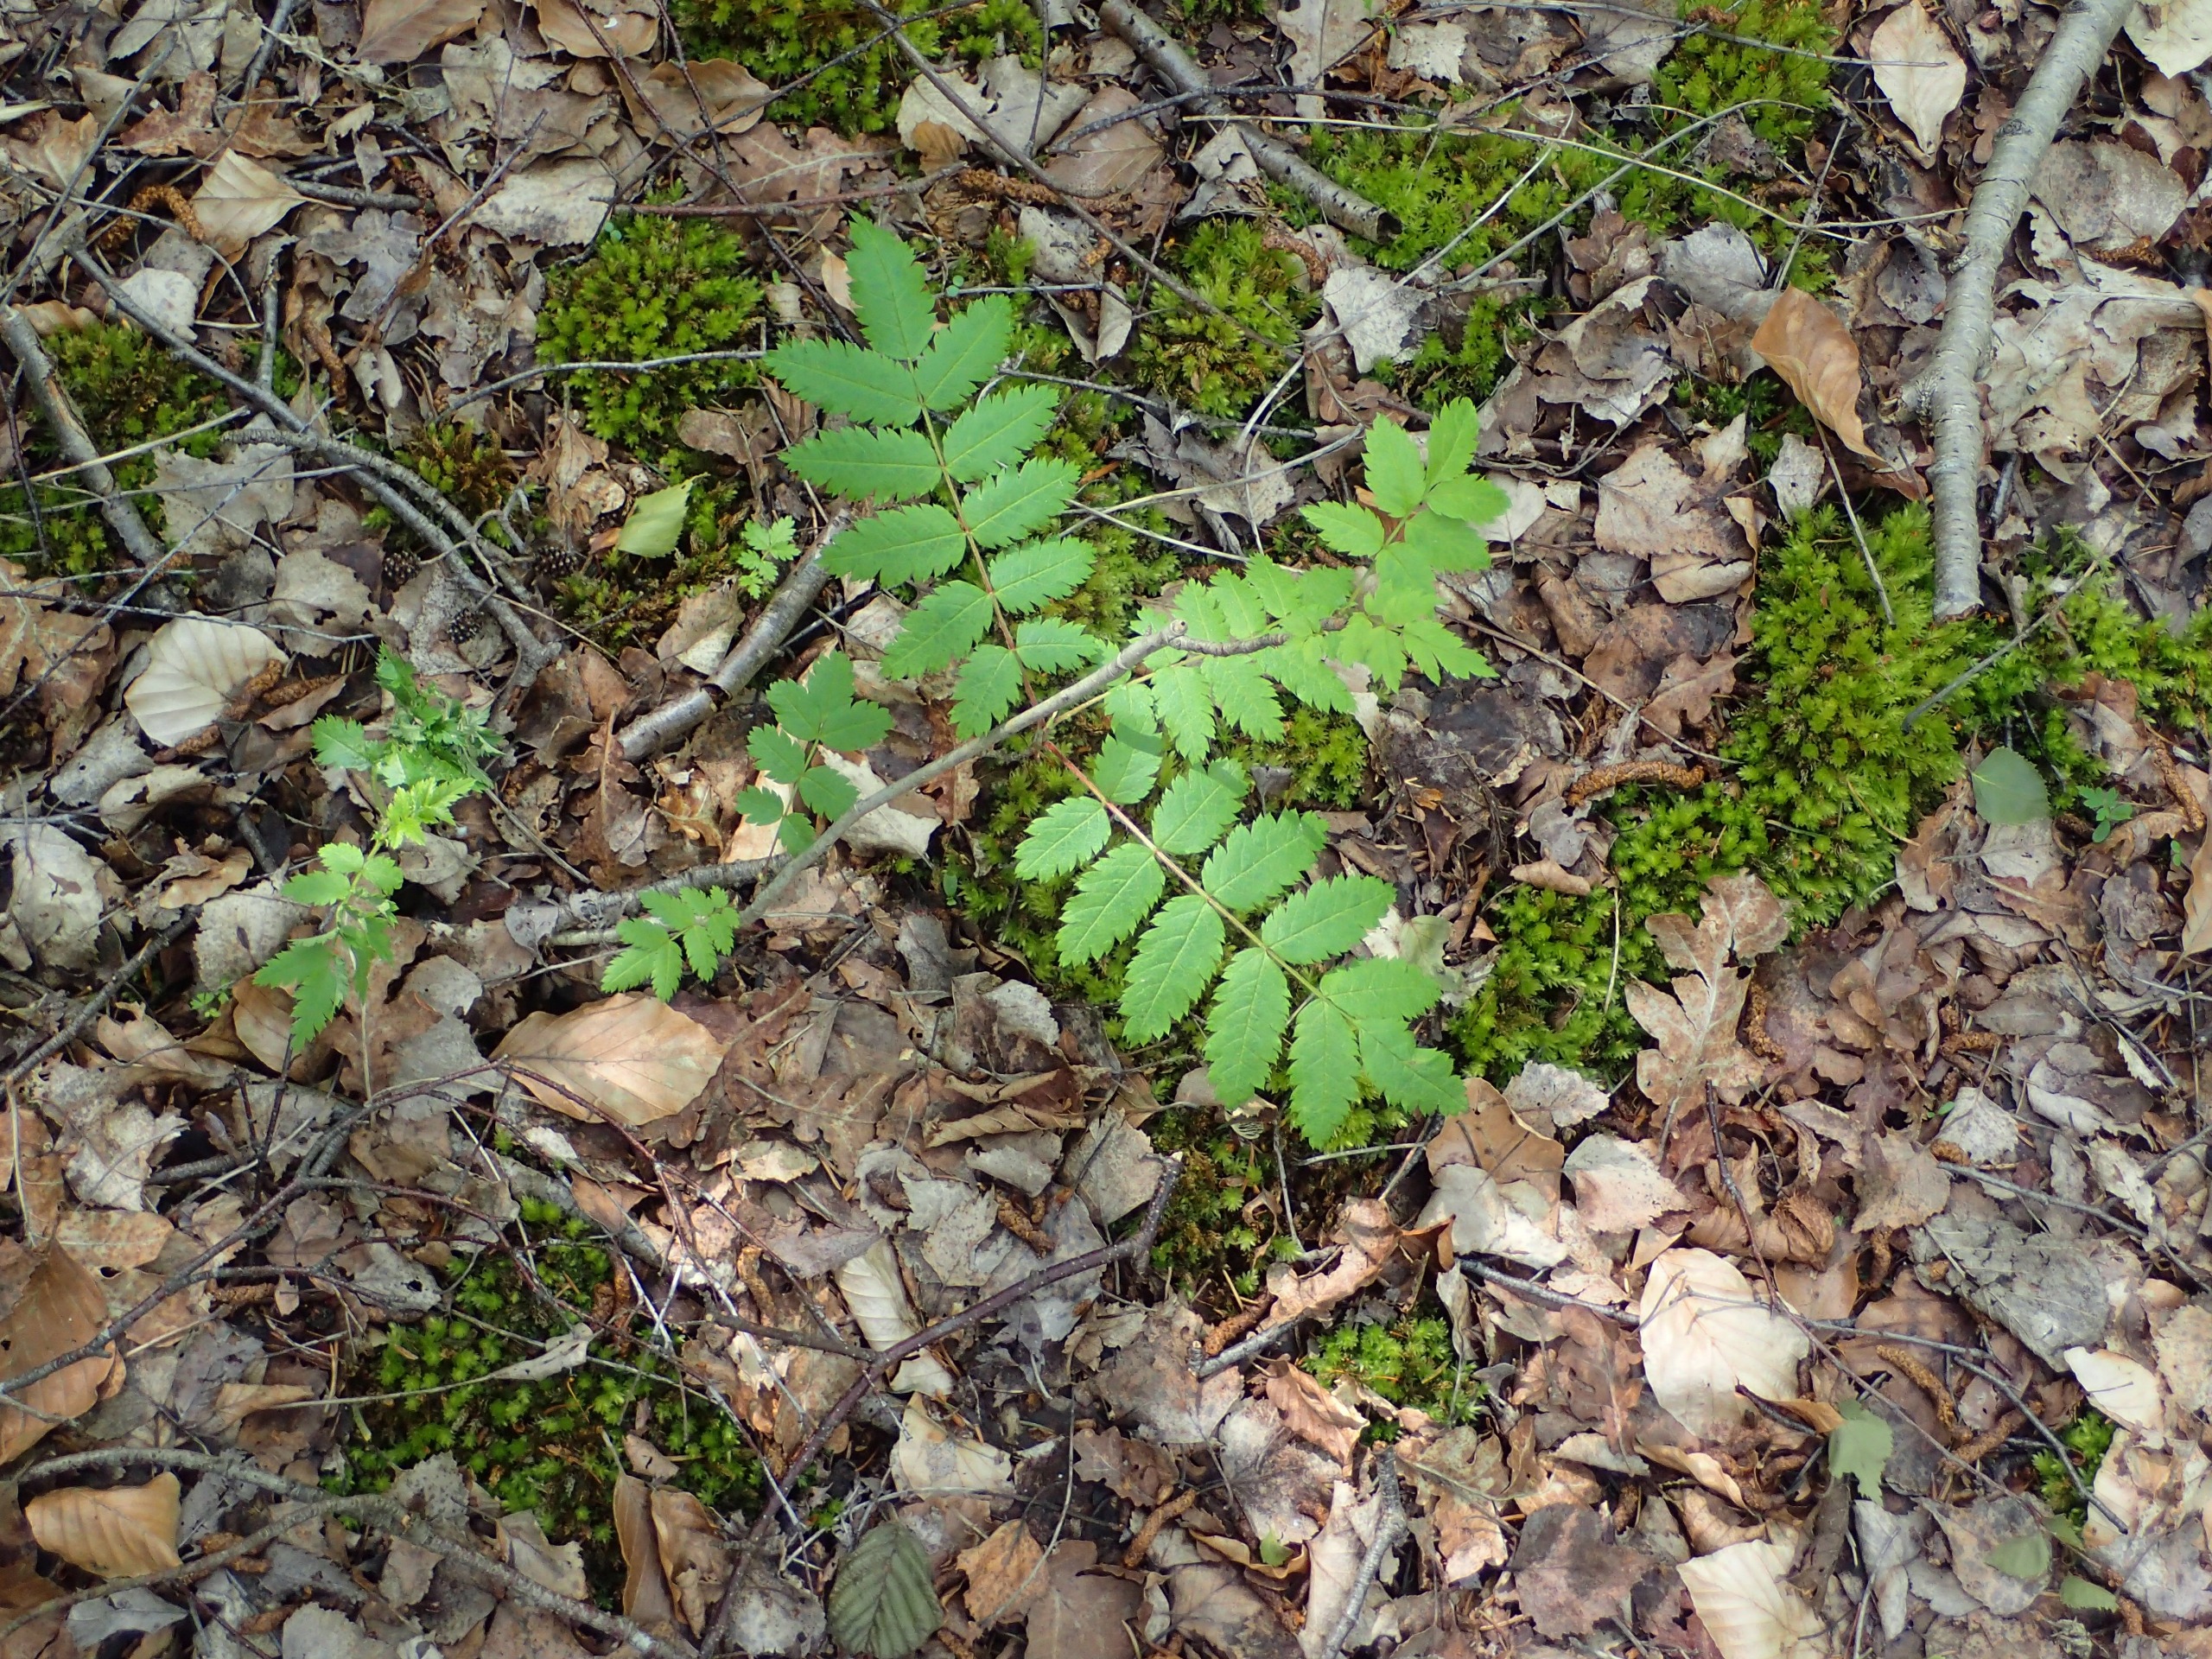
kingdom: Plantae
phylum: Tracheophyta
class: Magnoliopsida
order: Rosales
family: Rosaceae
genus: Sorbus
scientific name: Sorbus aucuparia
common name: Almindelig røn
